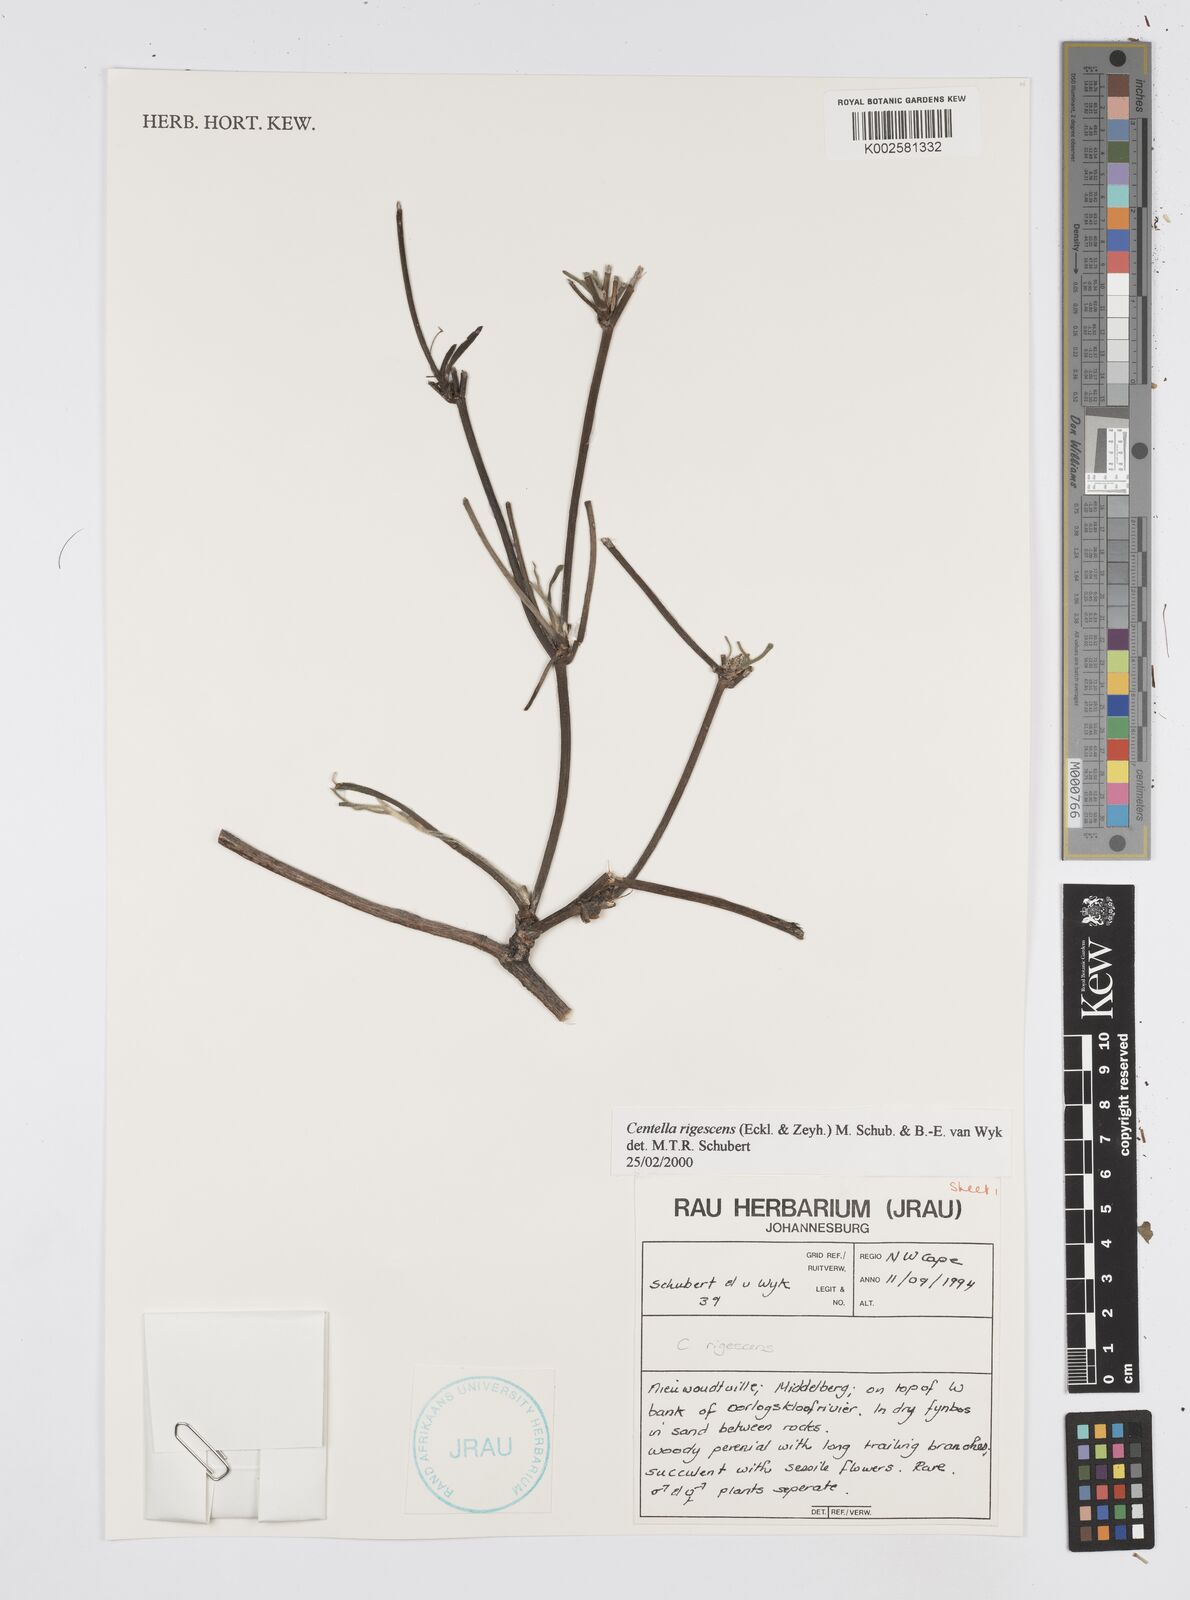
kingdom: Plantae
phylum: Tracheophyta
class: Magnoliopsida
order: Apiales
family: Apiaceae
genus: Centella
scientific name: Centella
